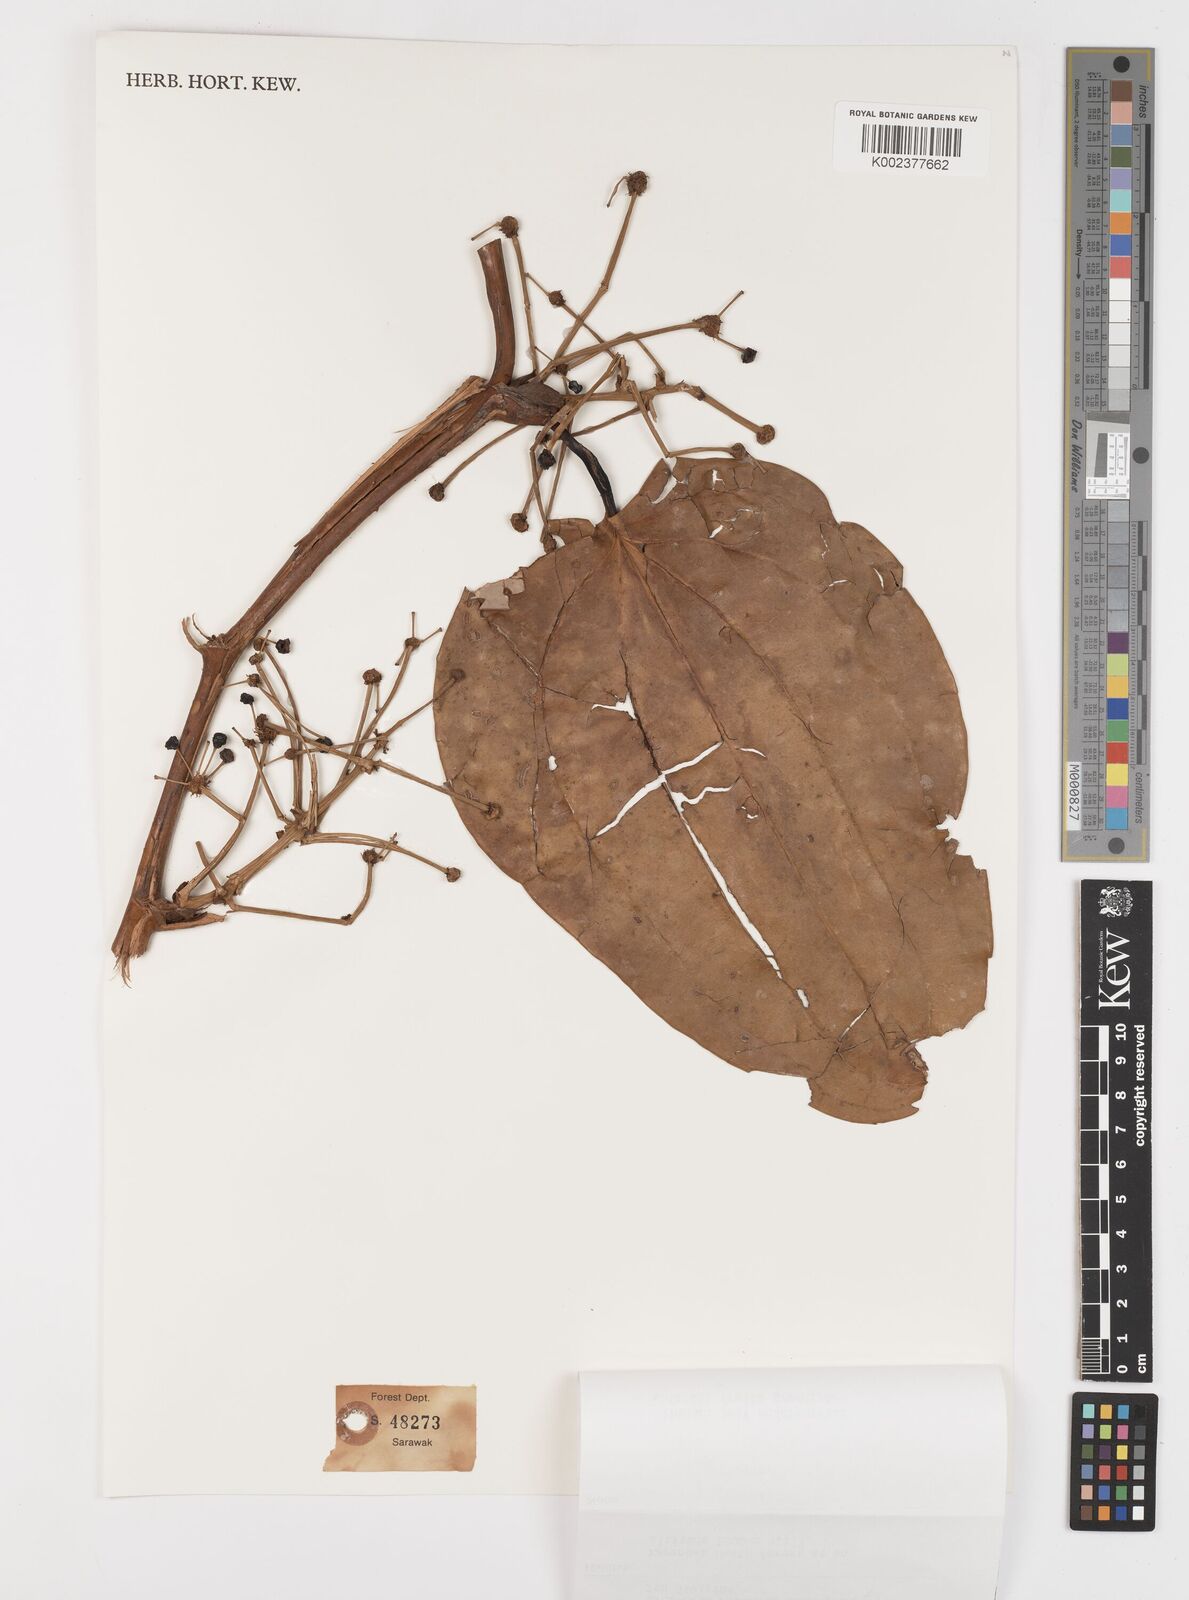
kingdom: Plantae
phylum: Tracheophyta
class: Liliopsida
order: Liliales
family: Smilacaceae
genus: Smilax
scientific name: Smilax leucophylla
